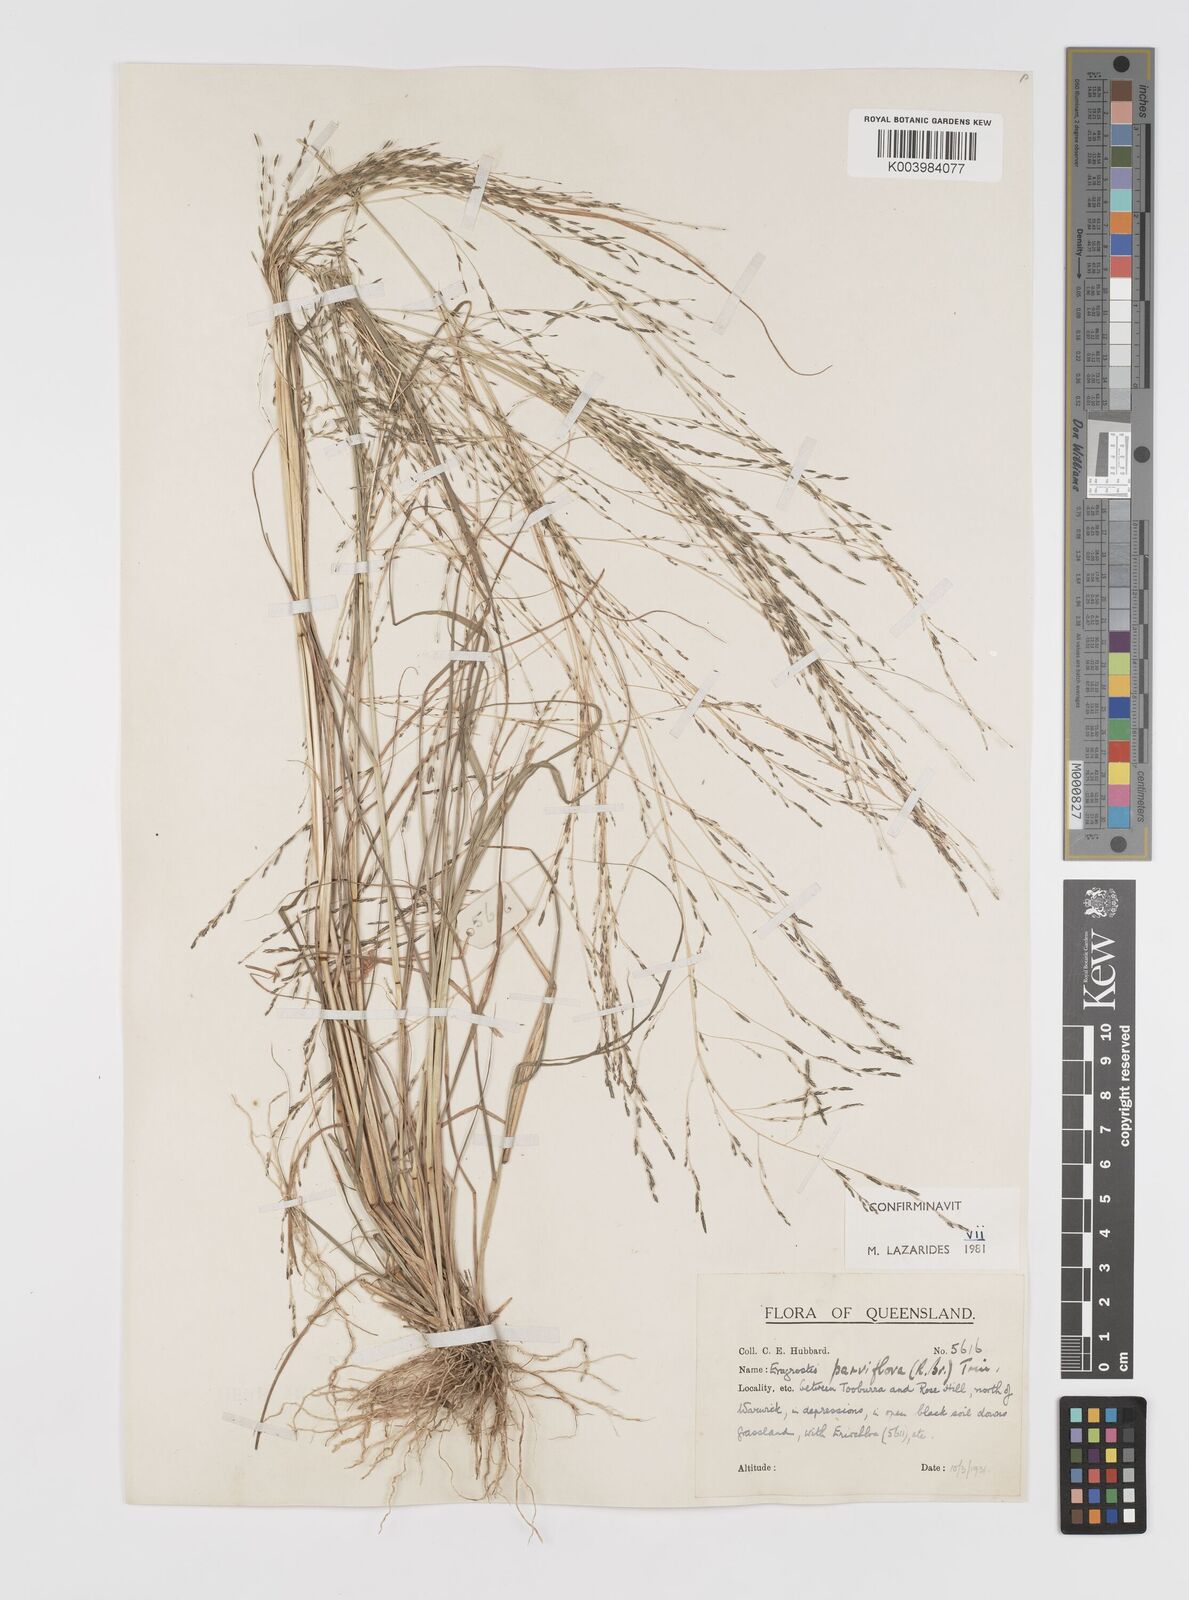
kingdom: Plantae
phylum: Tracheophyta
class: Liliopsida
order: Poales
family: Poaceae
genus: Eragrostis
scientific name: Eragrostis parviflora
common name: Weeping love-grass
